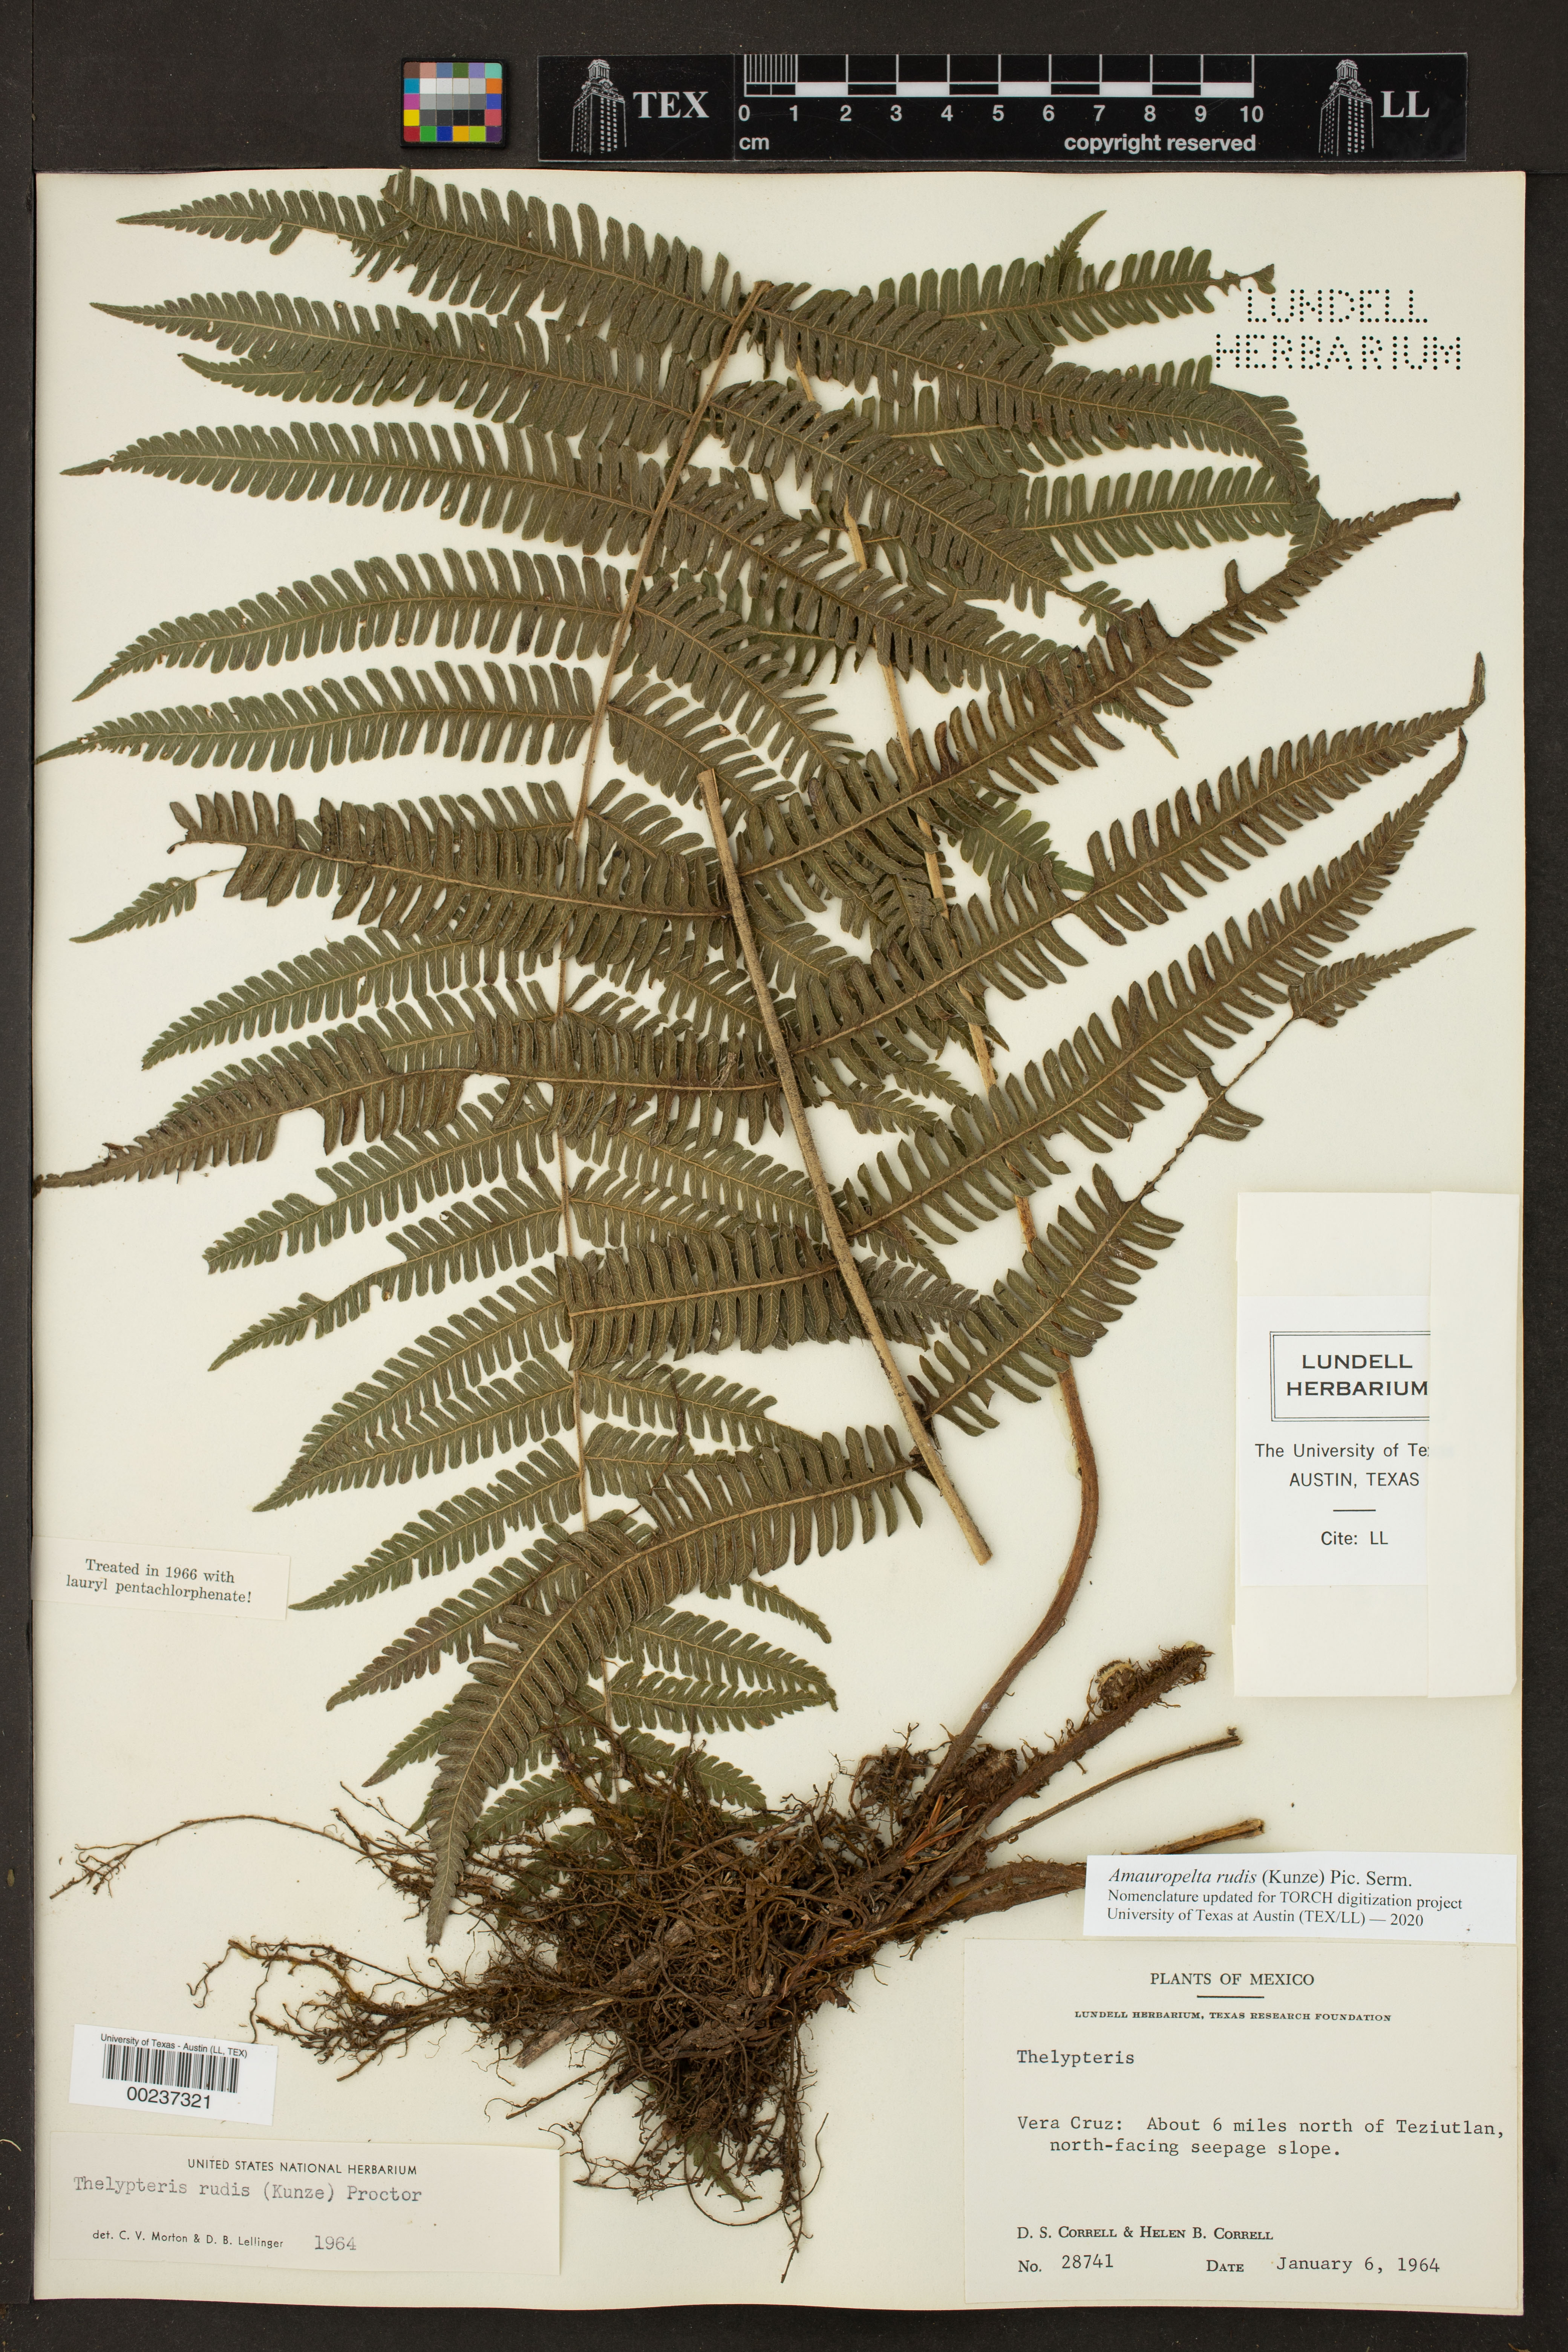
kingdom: Plantae
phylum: Tracheophyta
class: Polypodiopsida
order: Polypodiales
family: Thelypteridaceae
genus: Amauropelta
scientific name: Amauropelta rudis
